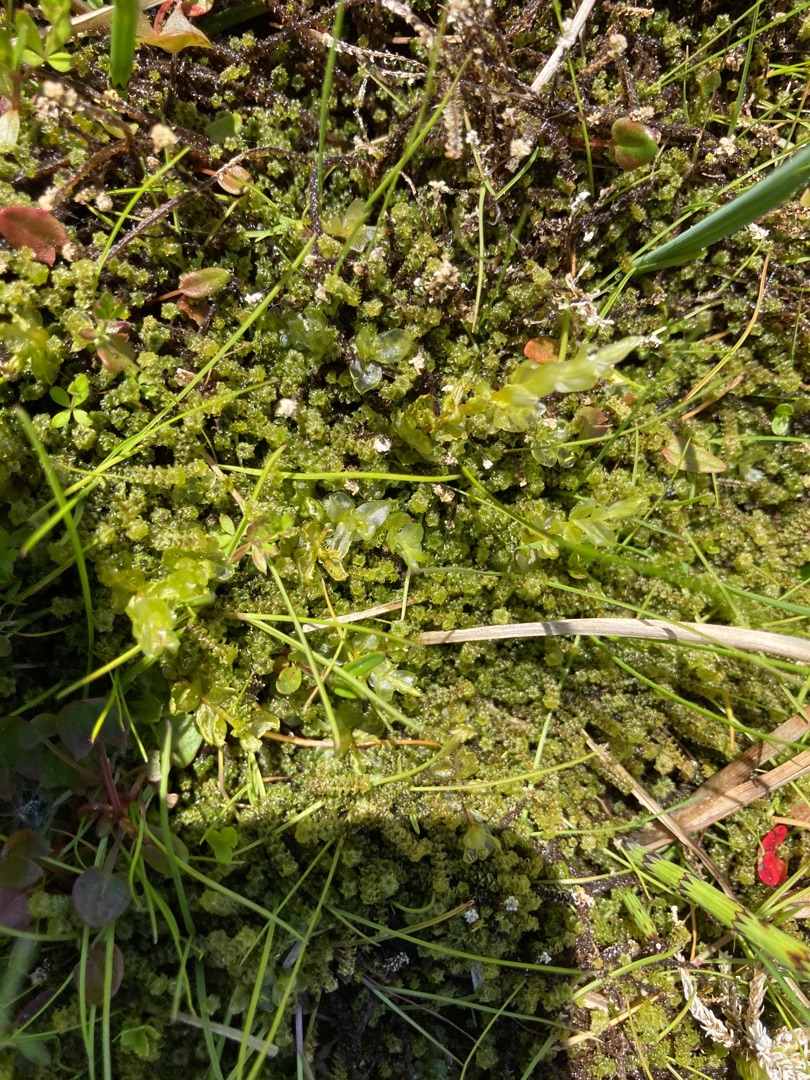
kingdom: Plantae
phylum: Bryophyta
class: Bryopsida
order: Splachnales
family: Meesiaceae
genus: Paludella
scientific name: Paludella squarrosa
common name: Almindelig piberensermos
